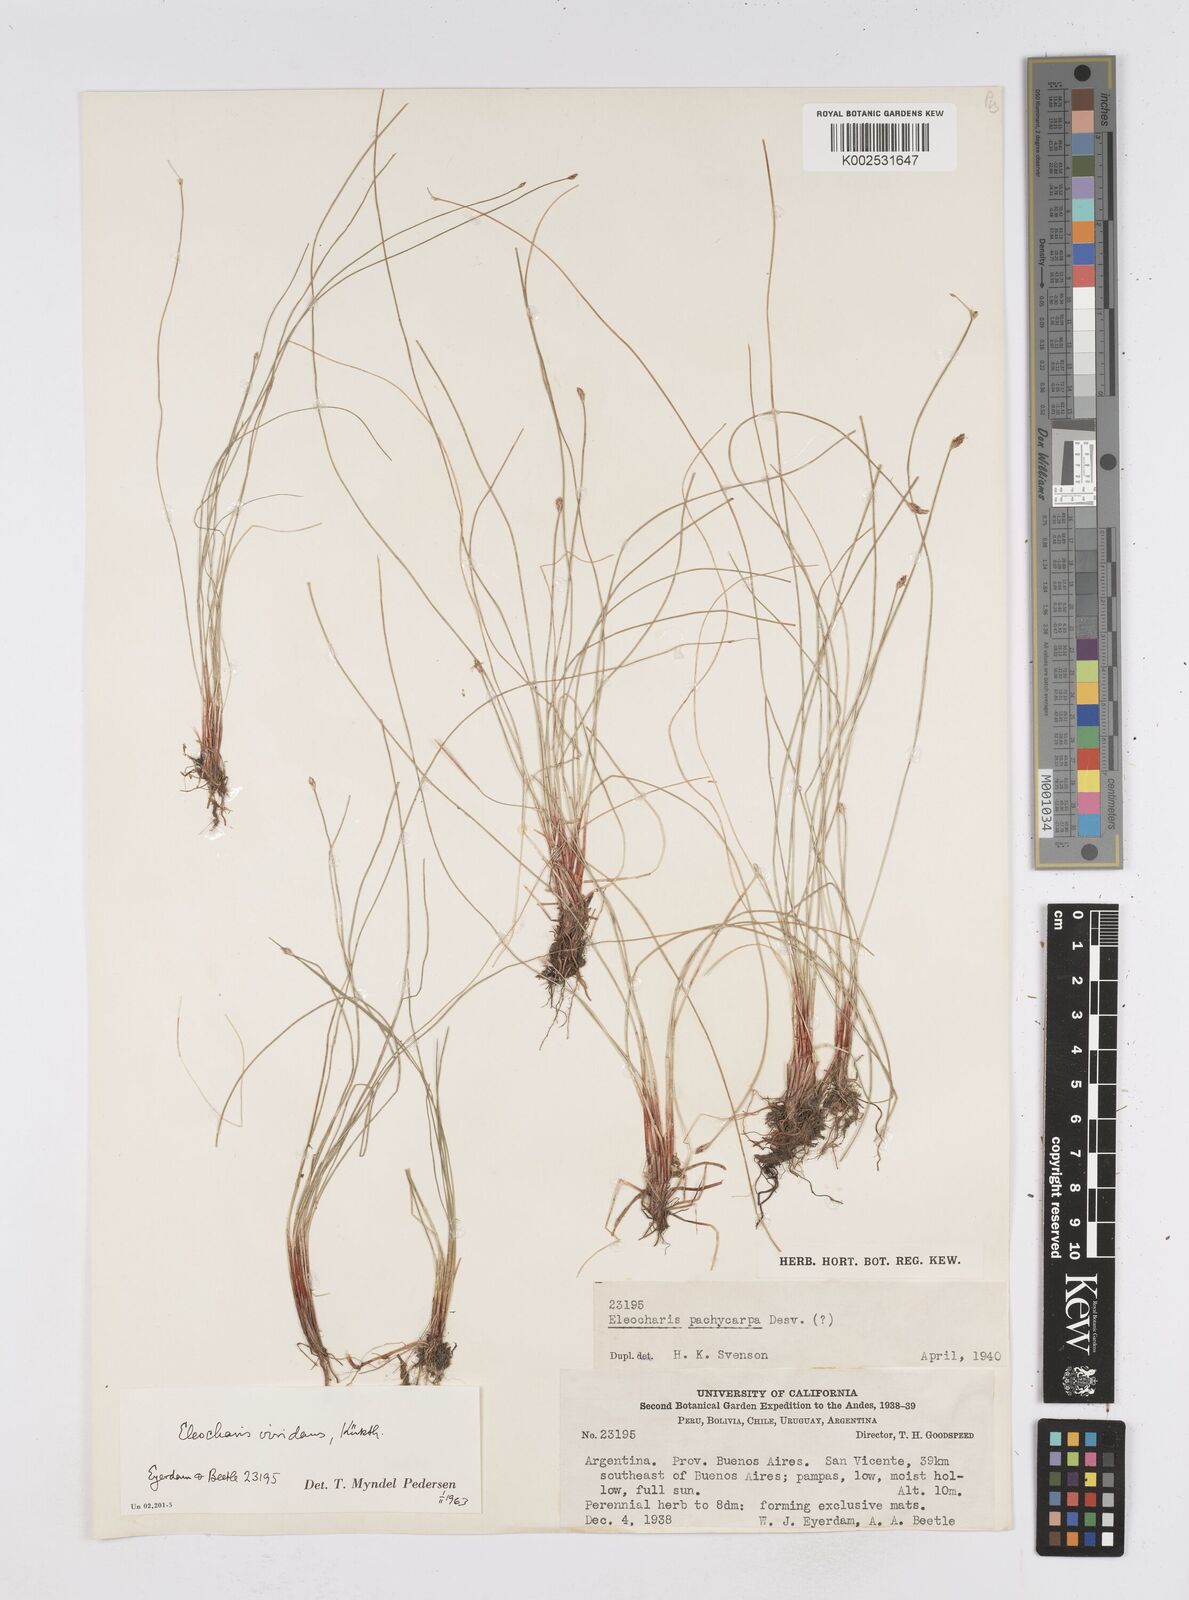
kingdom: Plantae
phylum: Tracheophyta
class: Liliopsida
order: Poales
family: Cyperaceae
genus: Eleocharis
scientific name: Eleocharis viridans
